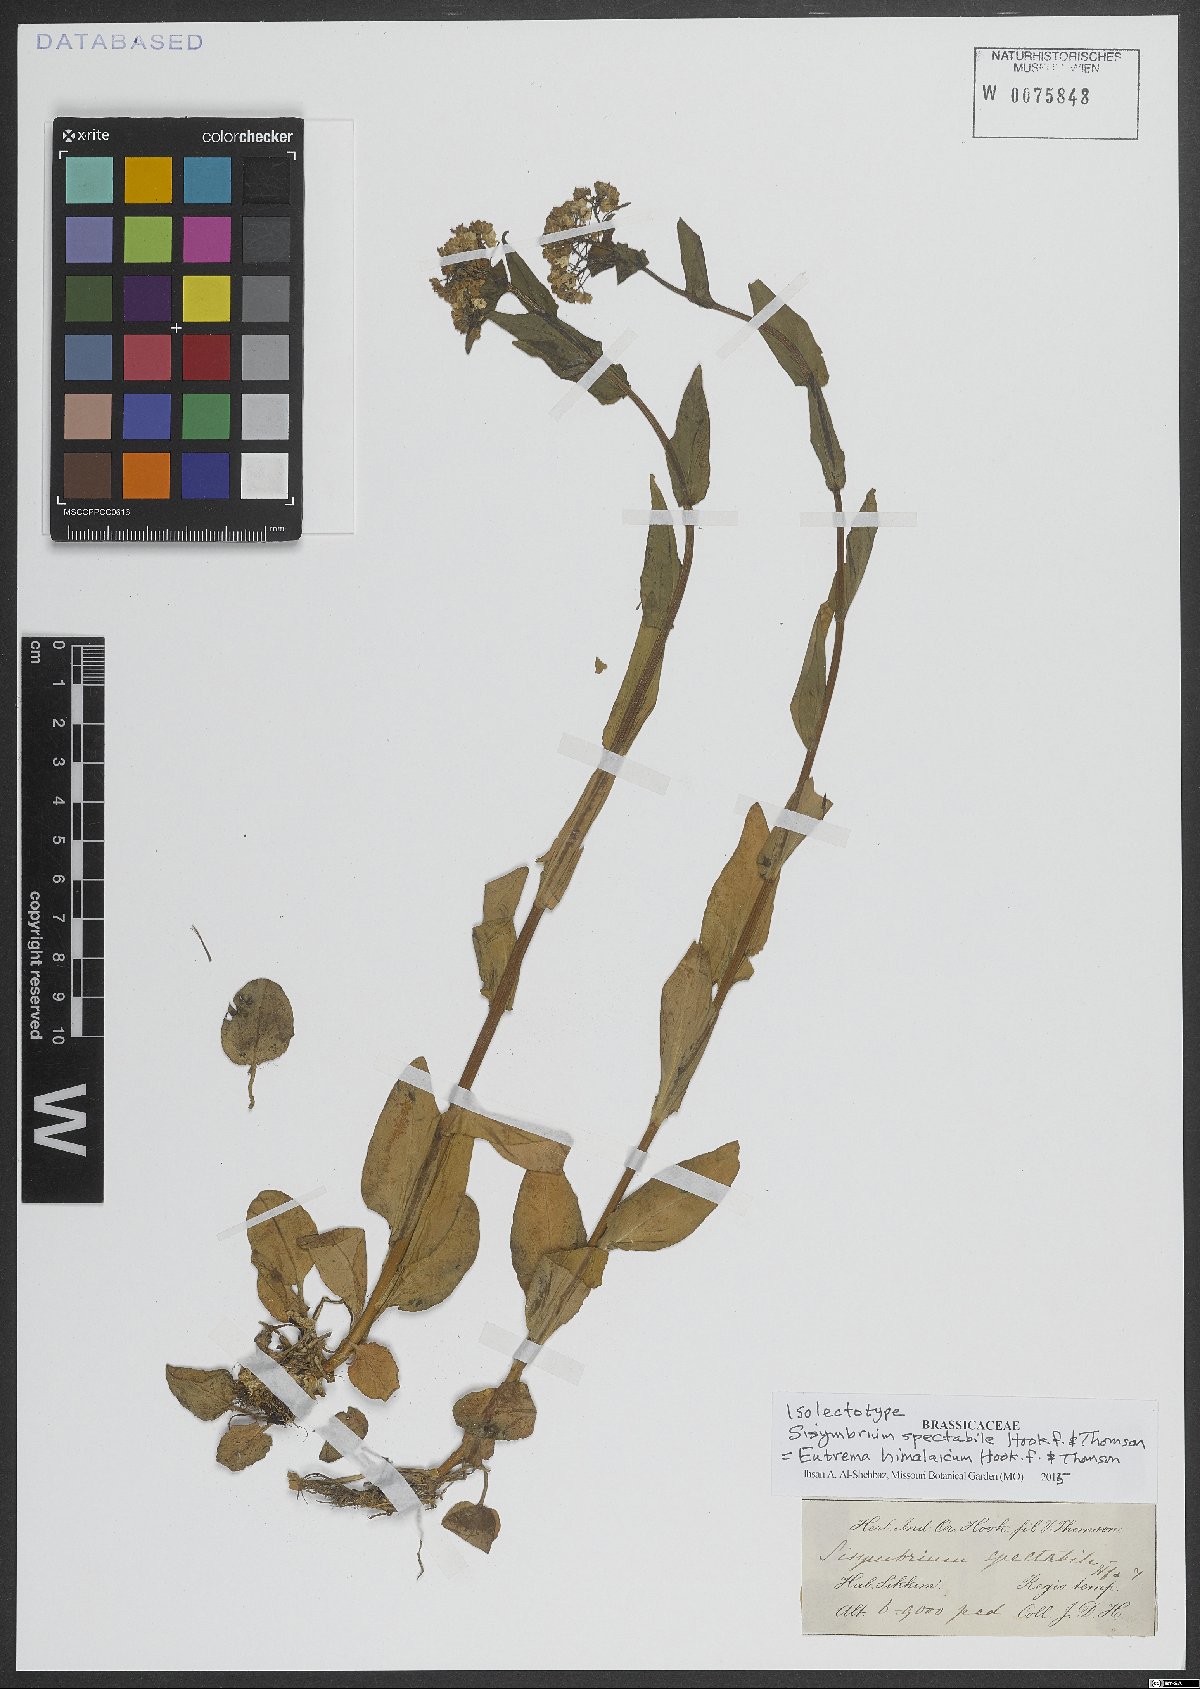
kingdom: Plantae
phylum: Tracheophyta
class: Magnoliopsida
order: Brassicales
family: Brassicaceae
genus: Eutrema
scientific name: Eutrema himalaicum
